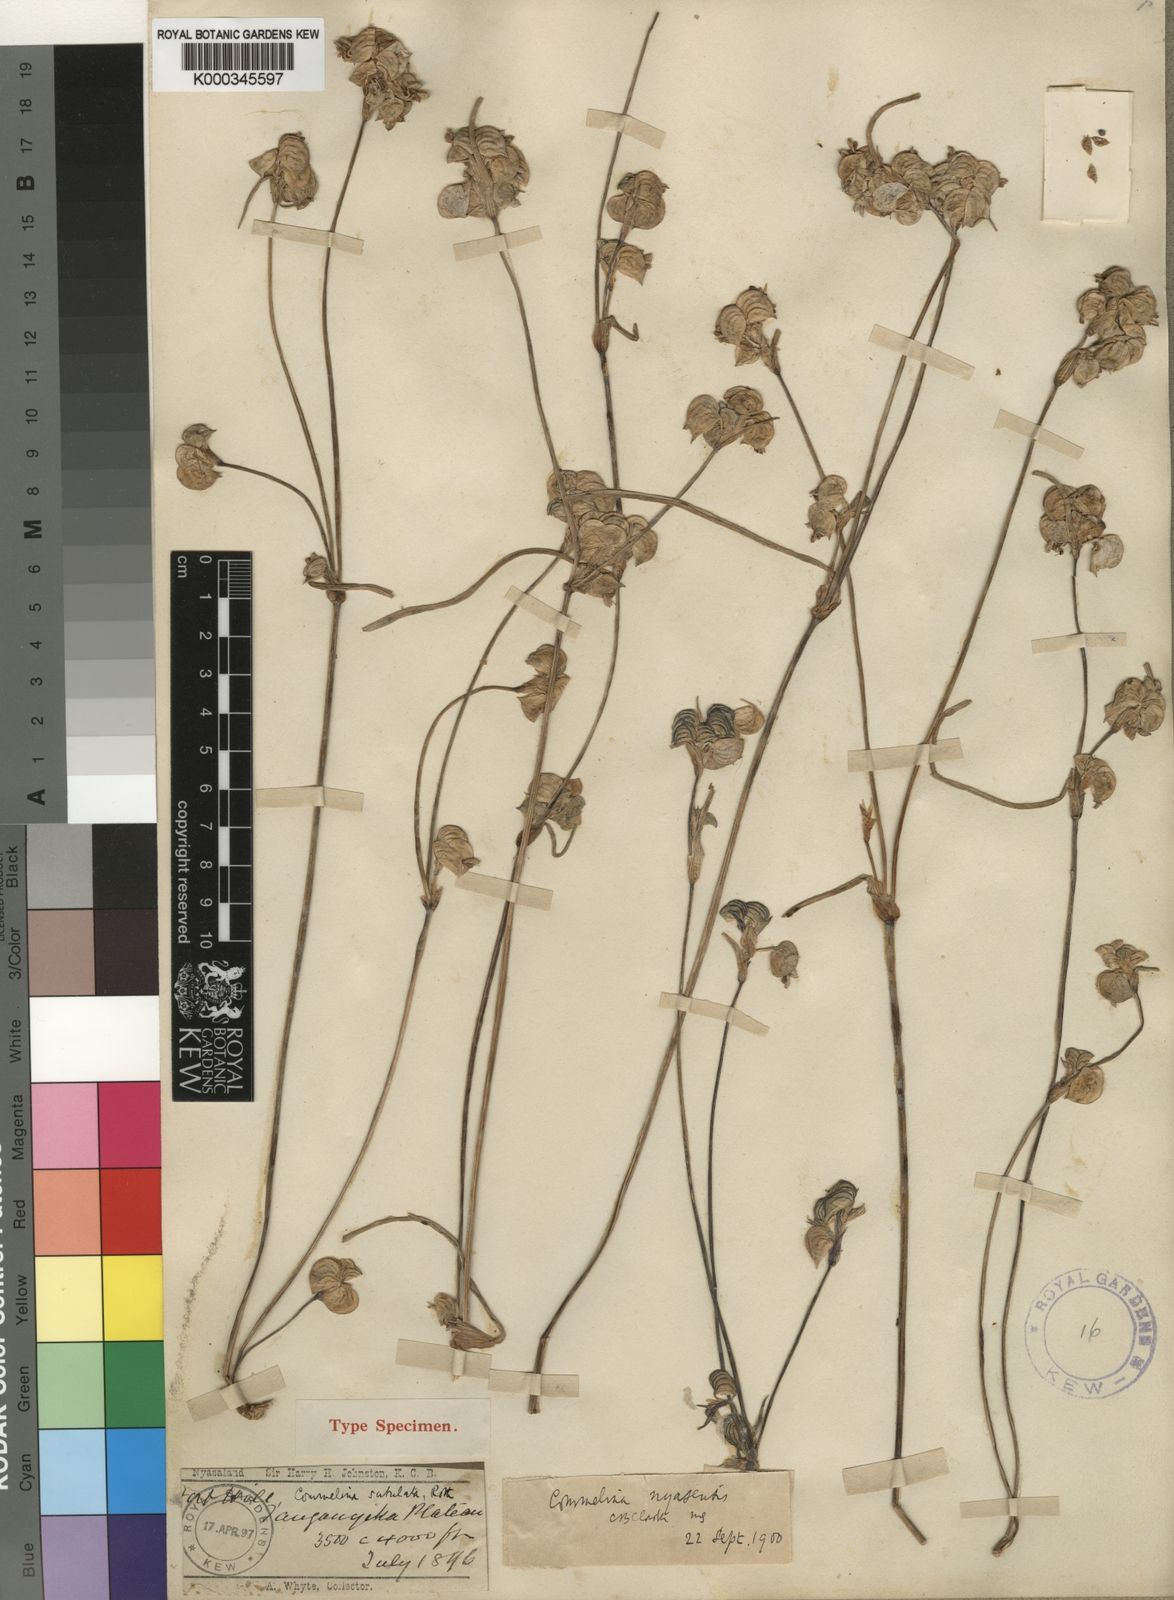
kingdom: Plantae
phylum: Tracheophyta
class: Liliopsida
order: Commelinales
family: Commelinaceae
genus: Commelina
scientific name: Commelina nyasensis
